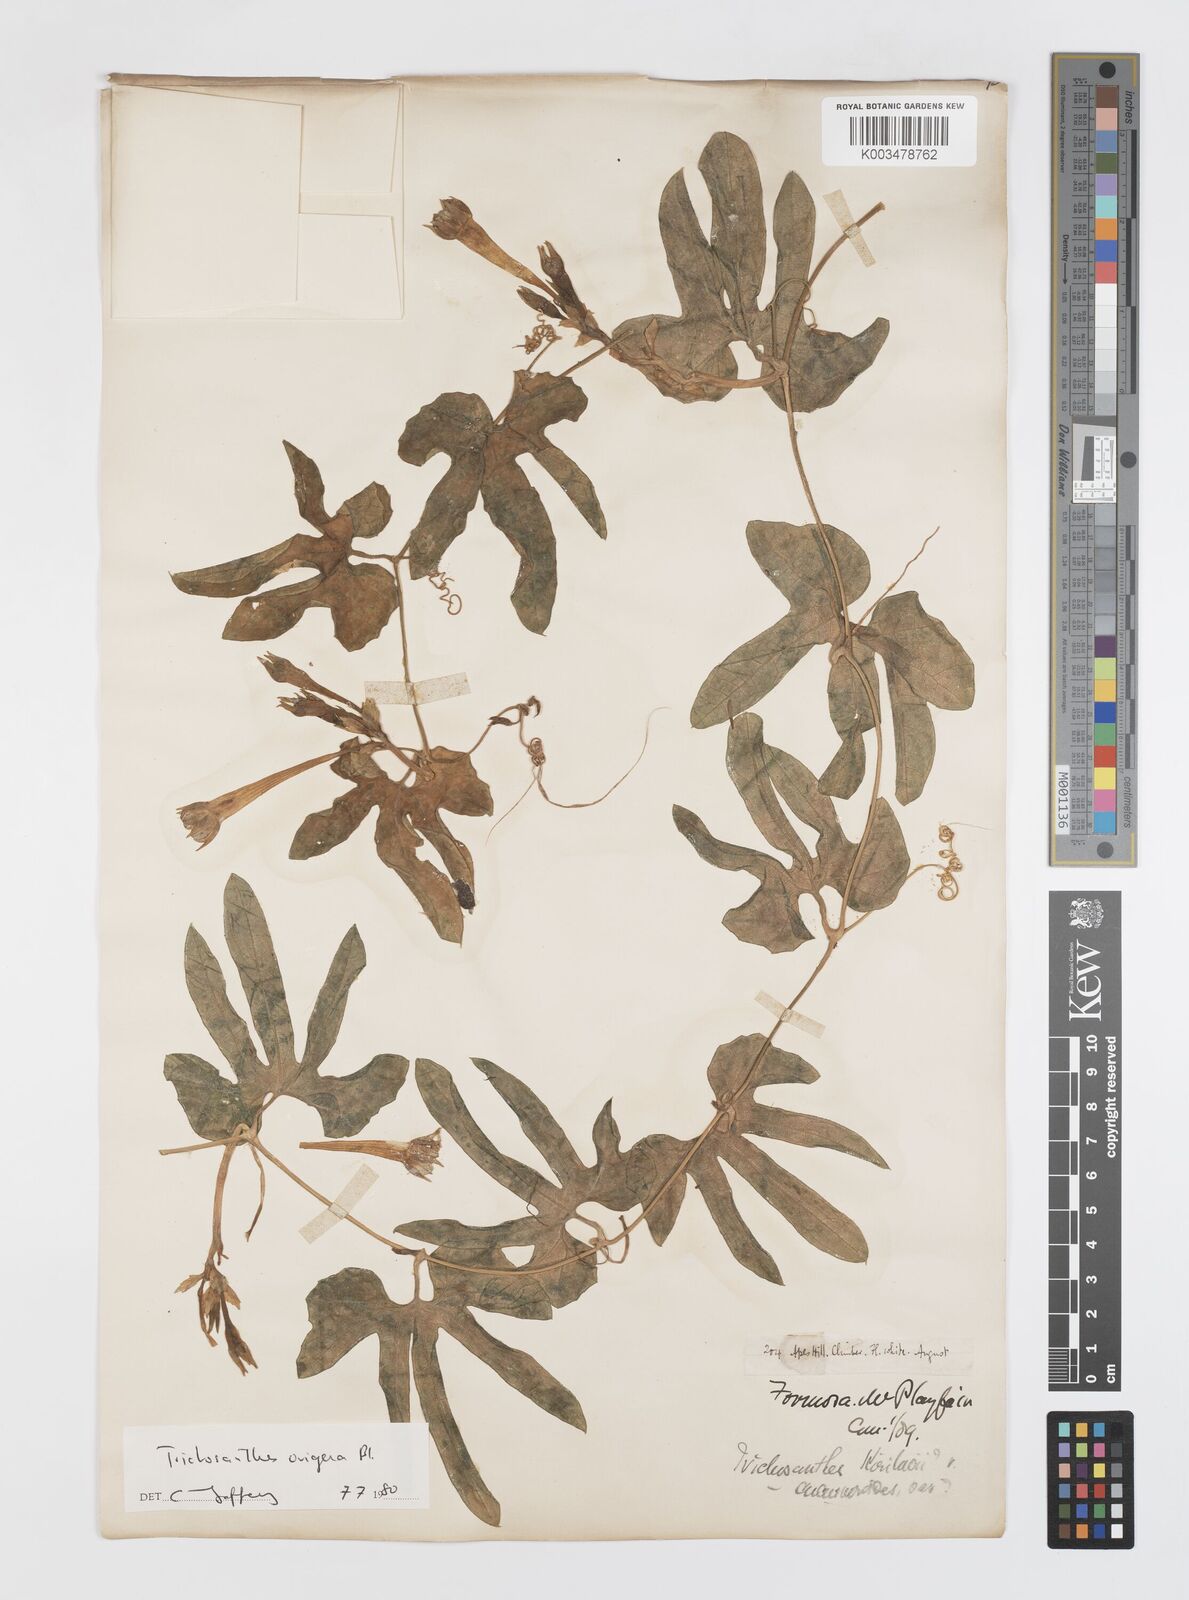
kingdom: Plantae
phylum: Tracheophyta
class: Magnoliopsida
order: Cucurbitales
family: Cucurbitaceae
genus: Trichosanthes
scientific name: Trichosanthes ovigera
